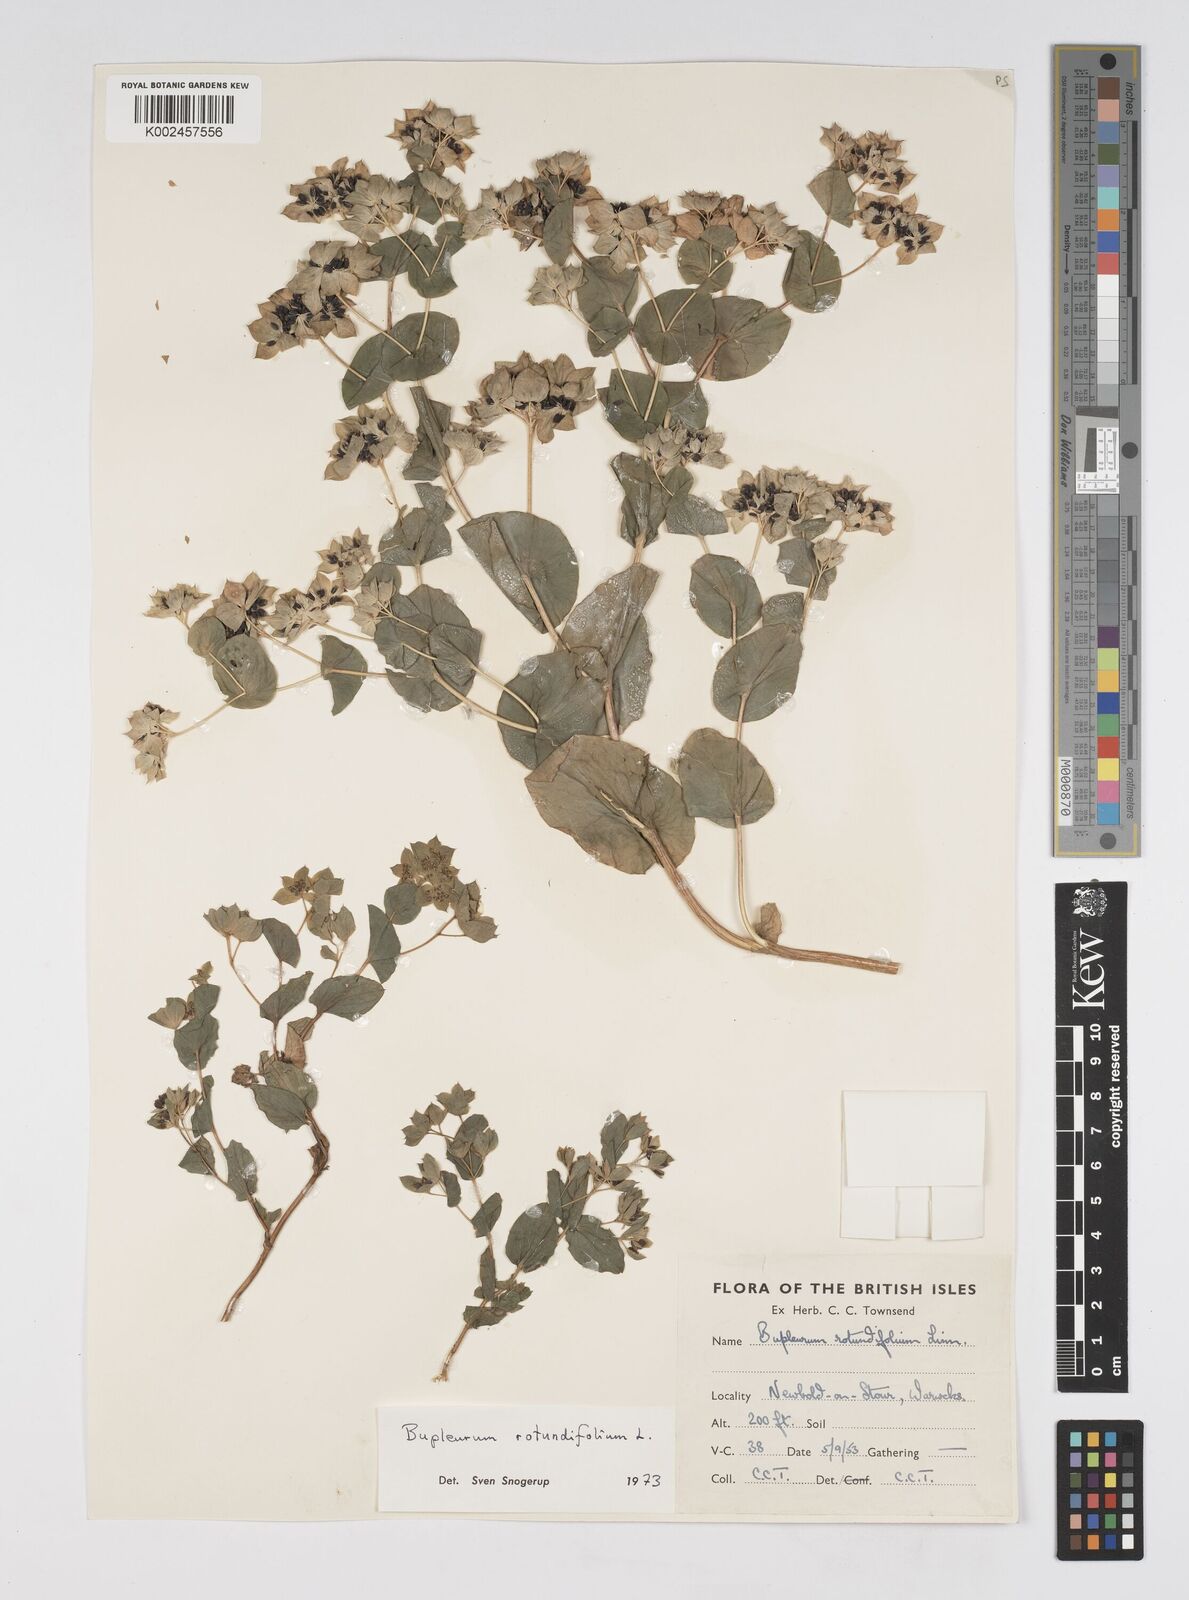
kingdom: Plantae
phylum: Tracheophyta
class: Magnoliopsida
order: Apiales
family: Apiaceae
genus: Bupleurum
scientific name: Bupleurum rotundifolium
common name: Thorow-wax
